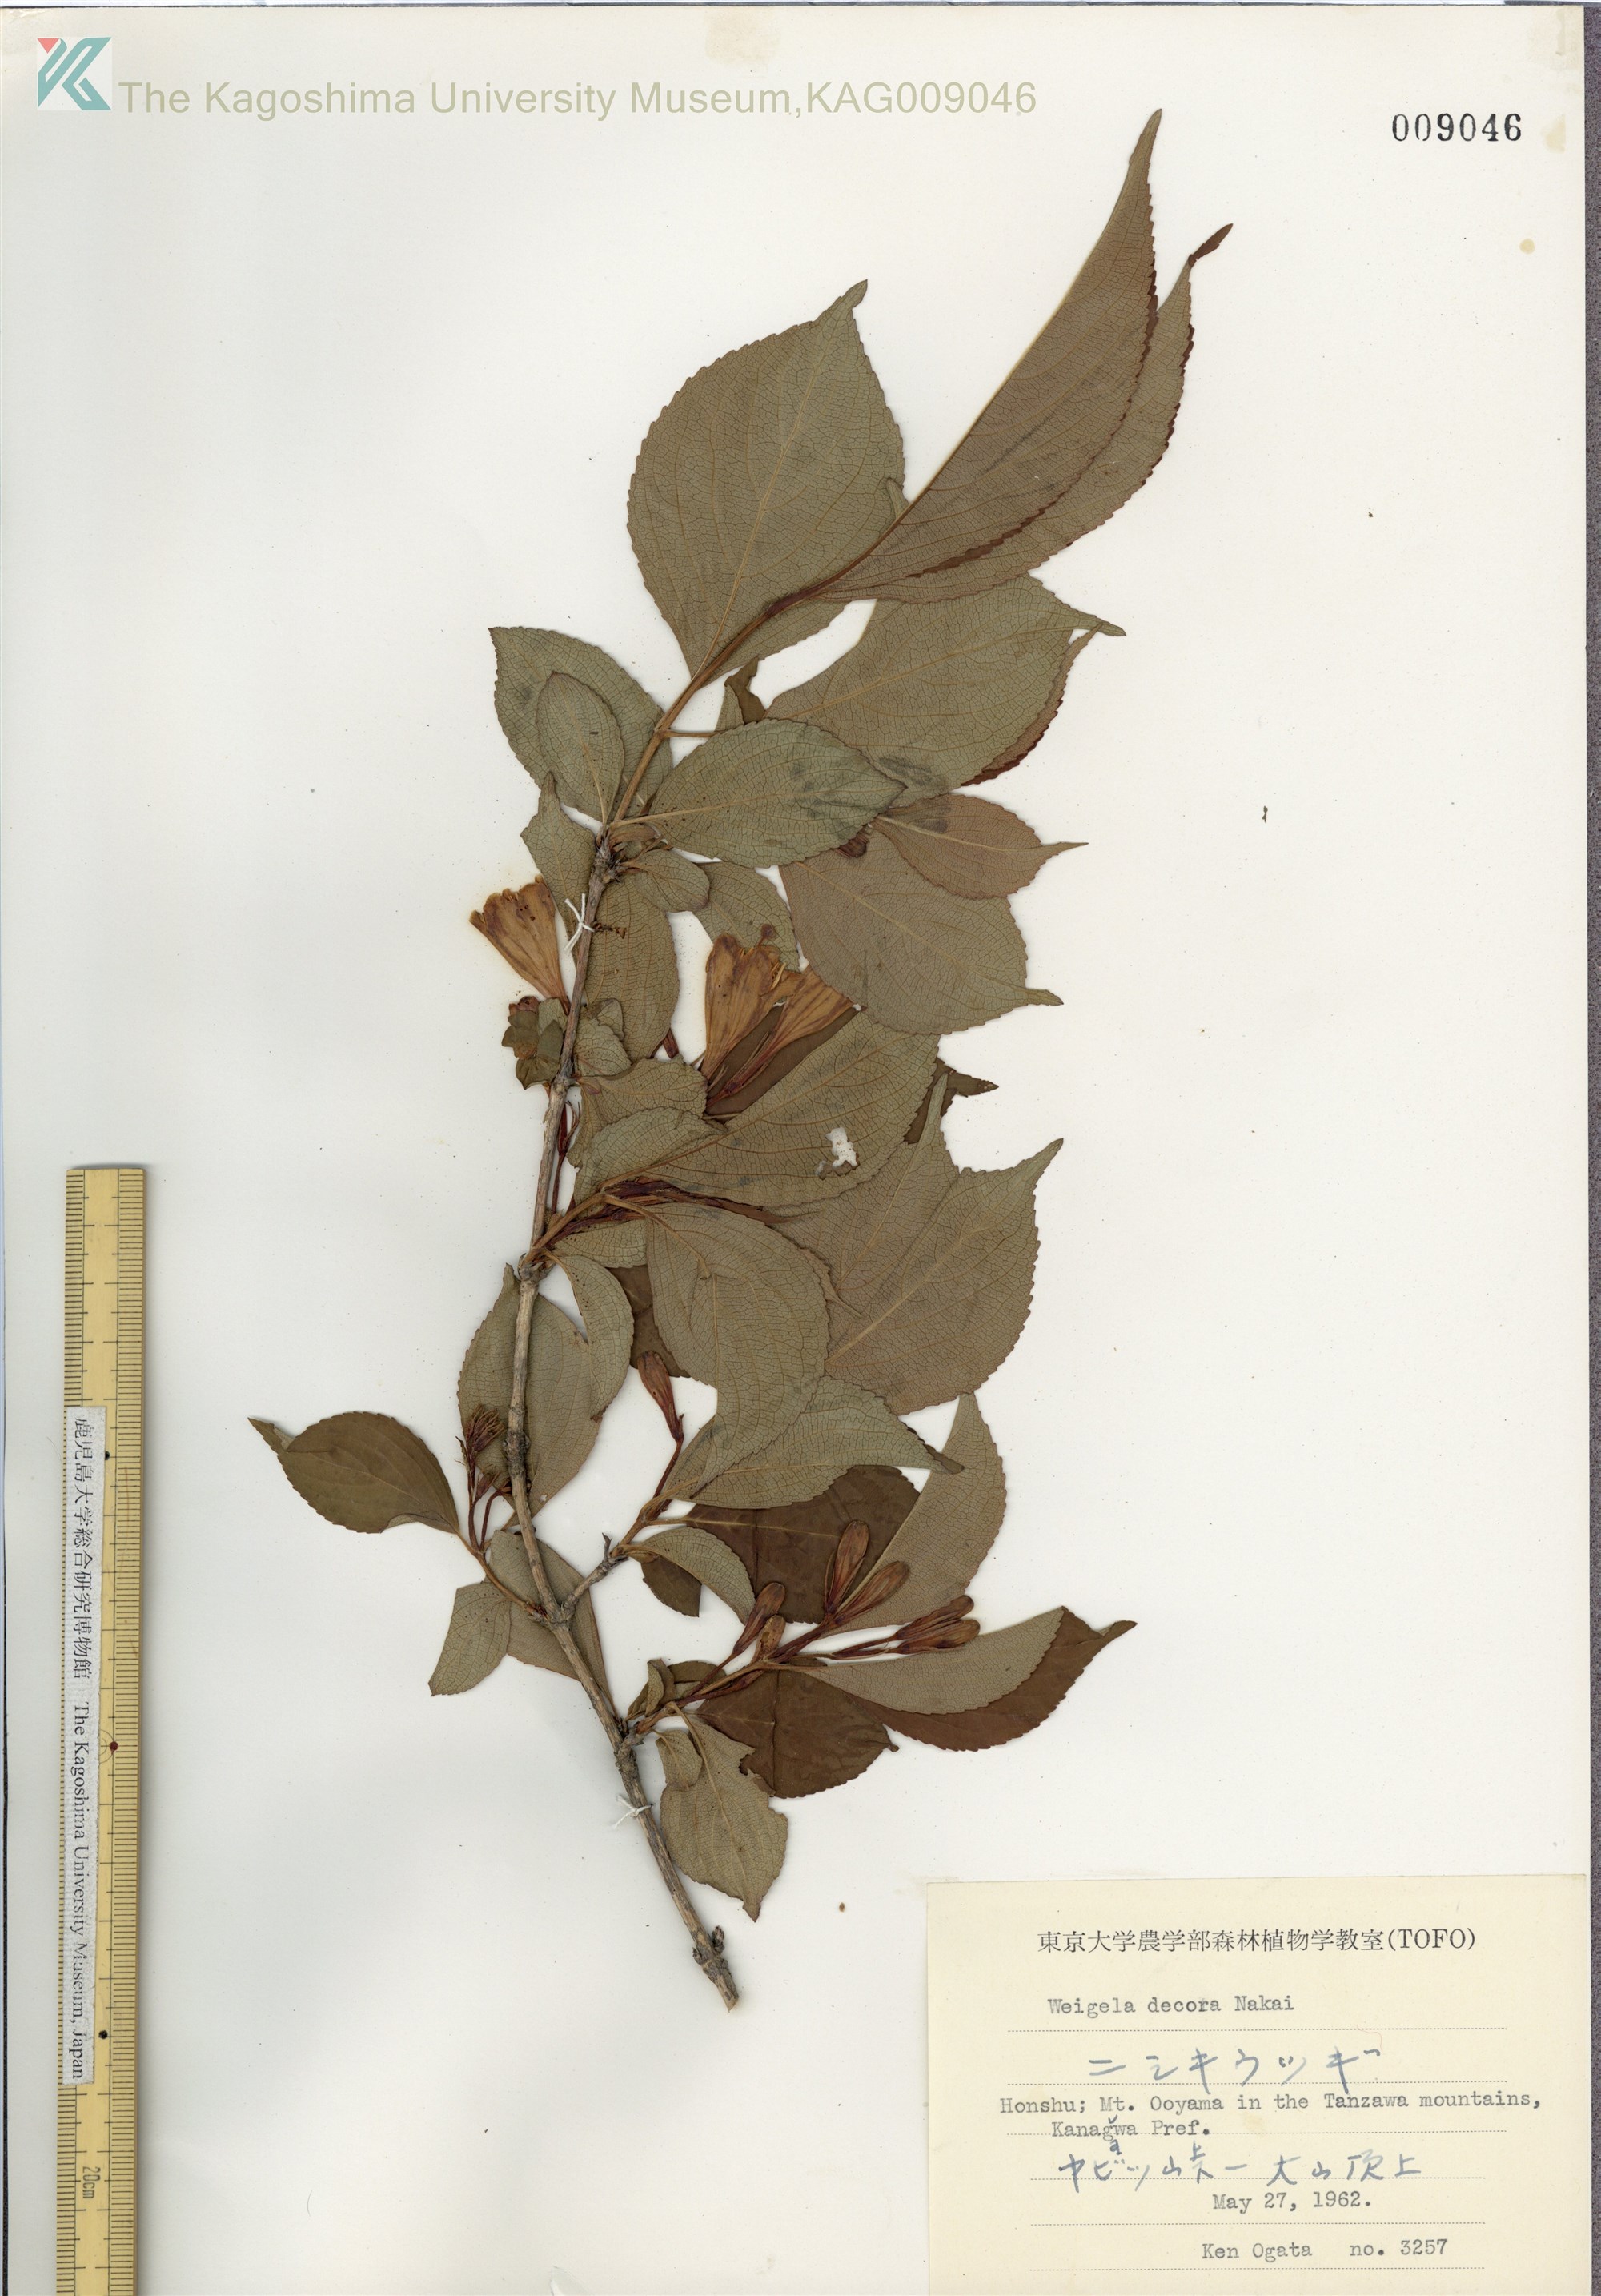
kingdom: Plantae
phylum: Tracheophyta
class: Magnoliopsida
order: Dipsacales
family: Caprifoliaceae
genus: Weigela
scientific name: Weigela decora
